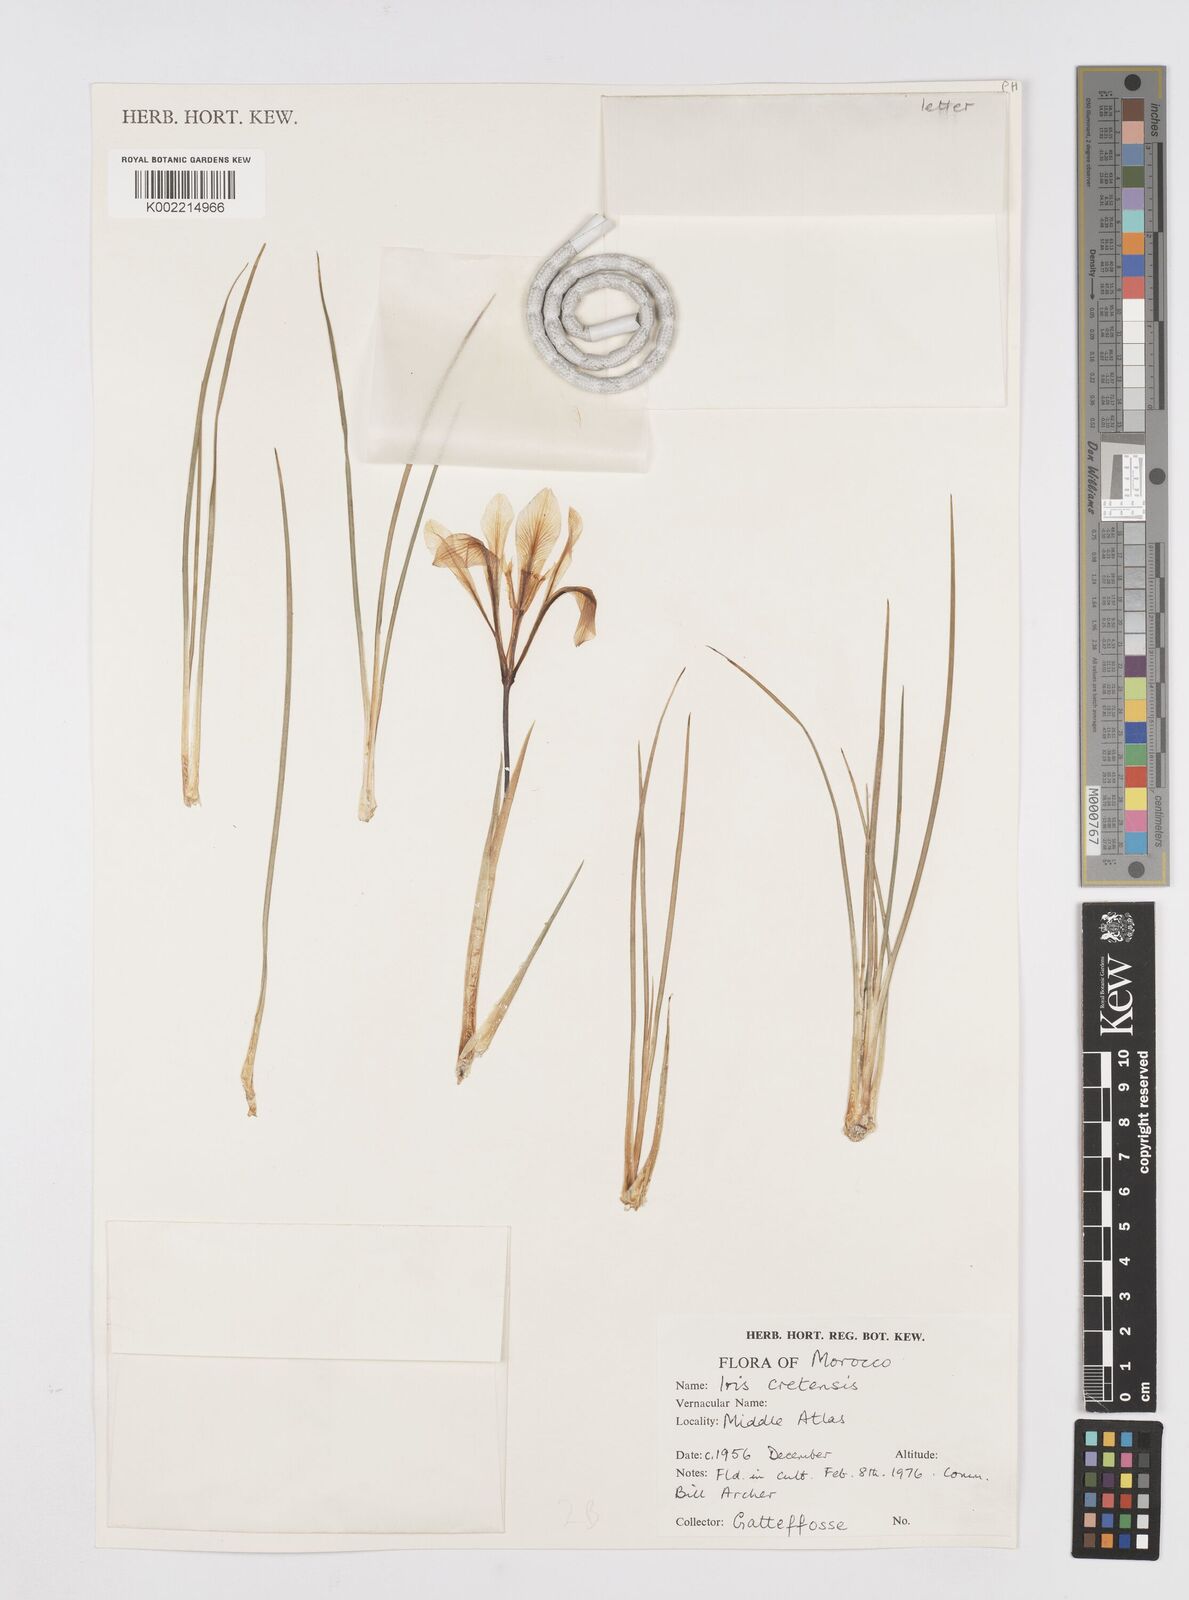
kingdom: Plantae
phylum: Tracheophyta
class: Liliopsida
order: Asparagales
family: Iridaceae
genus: Iris
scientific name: Iris unguicularis
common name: Algerian iris
